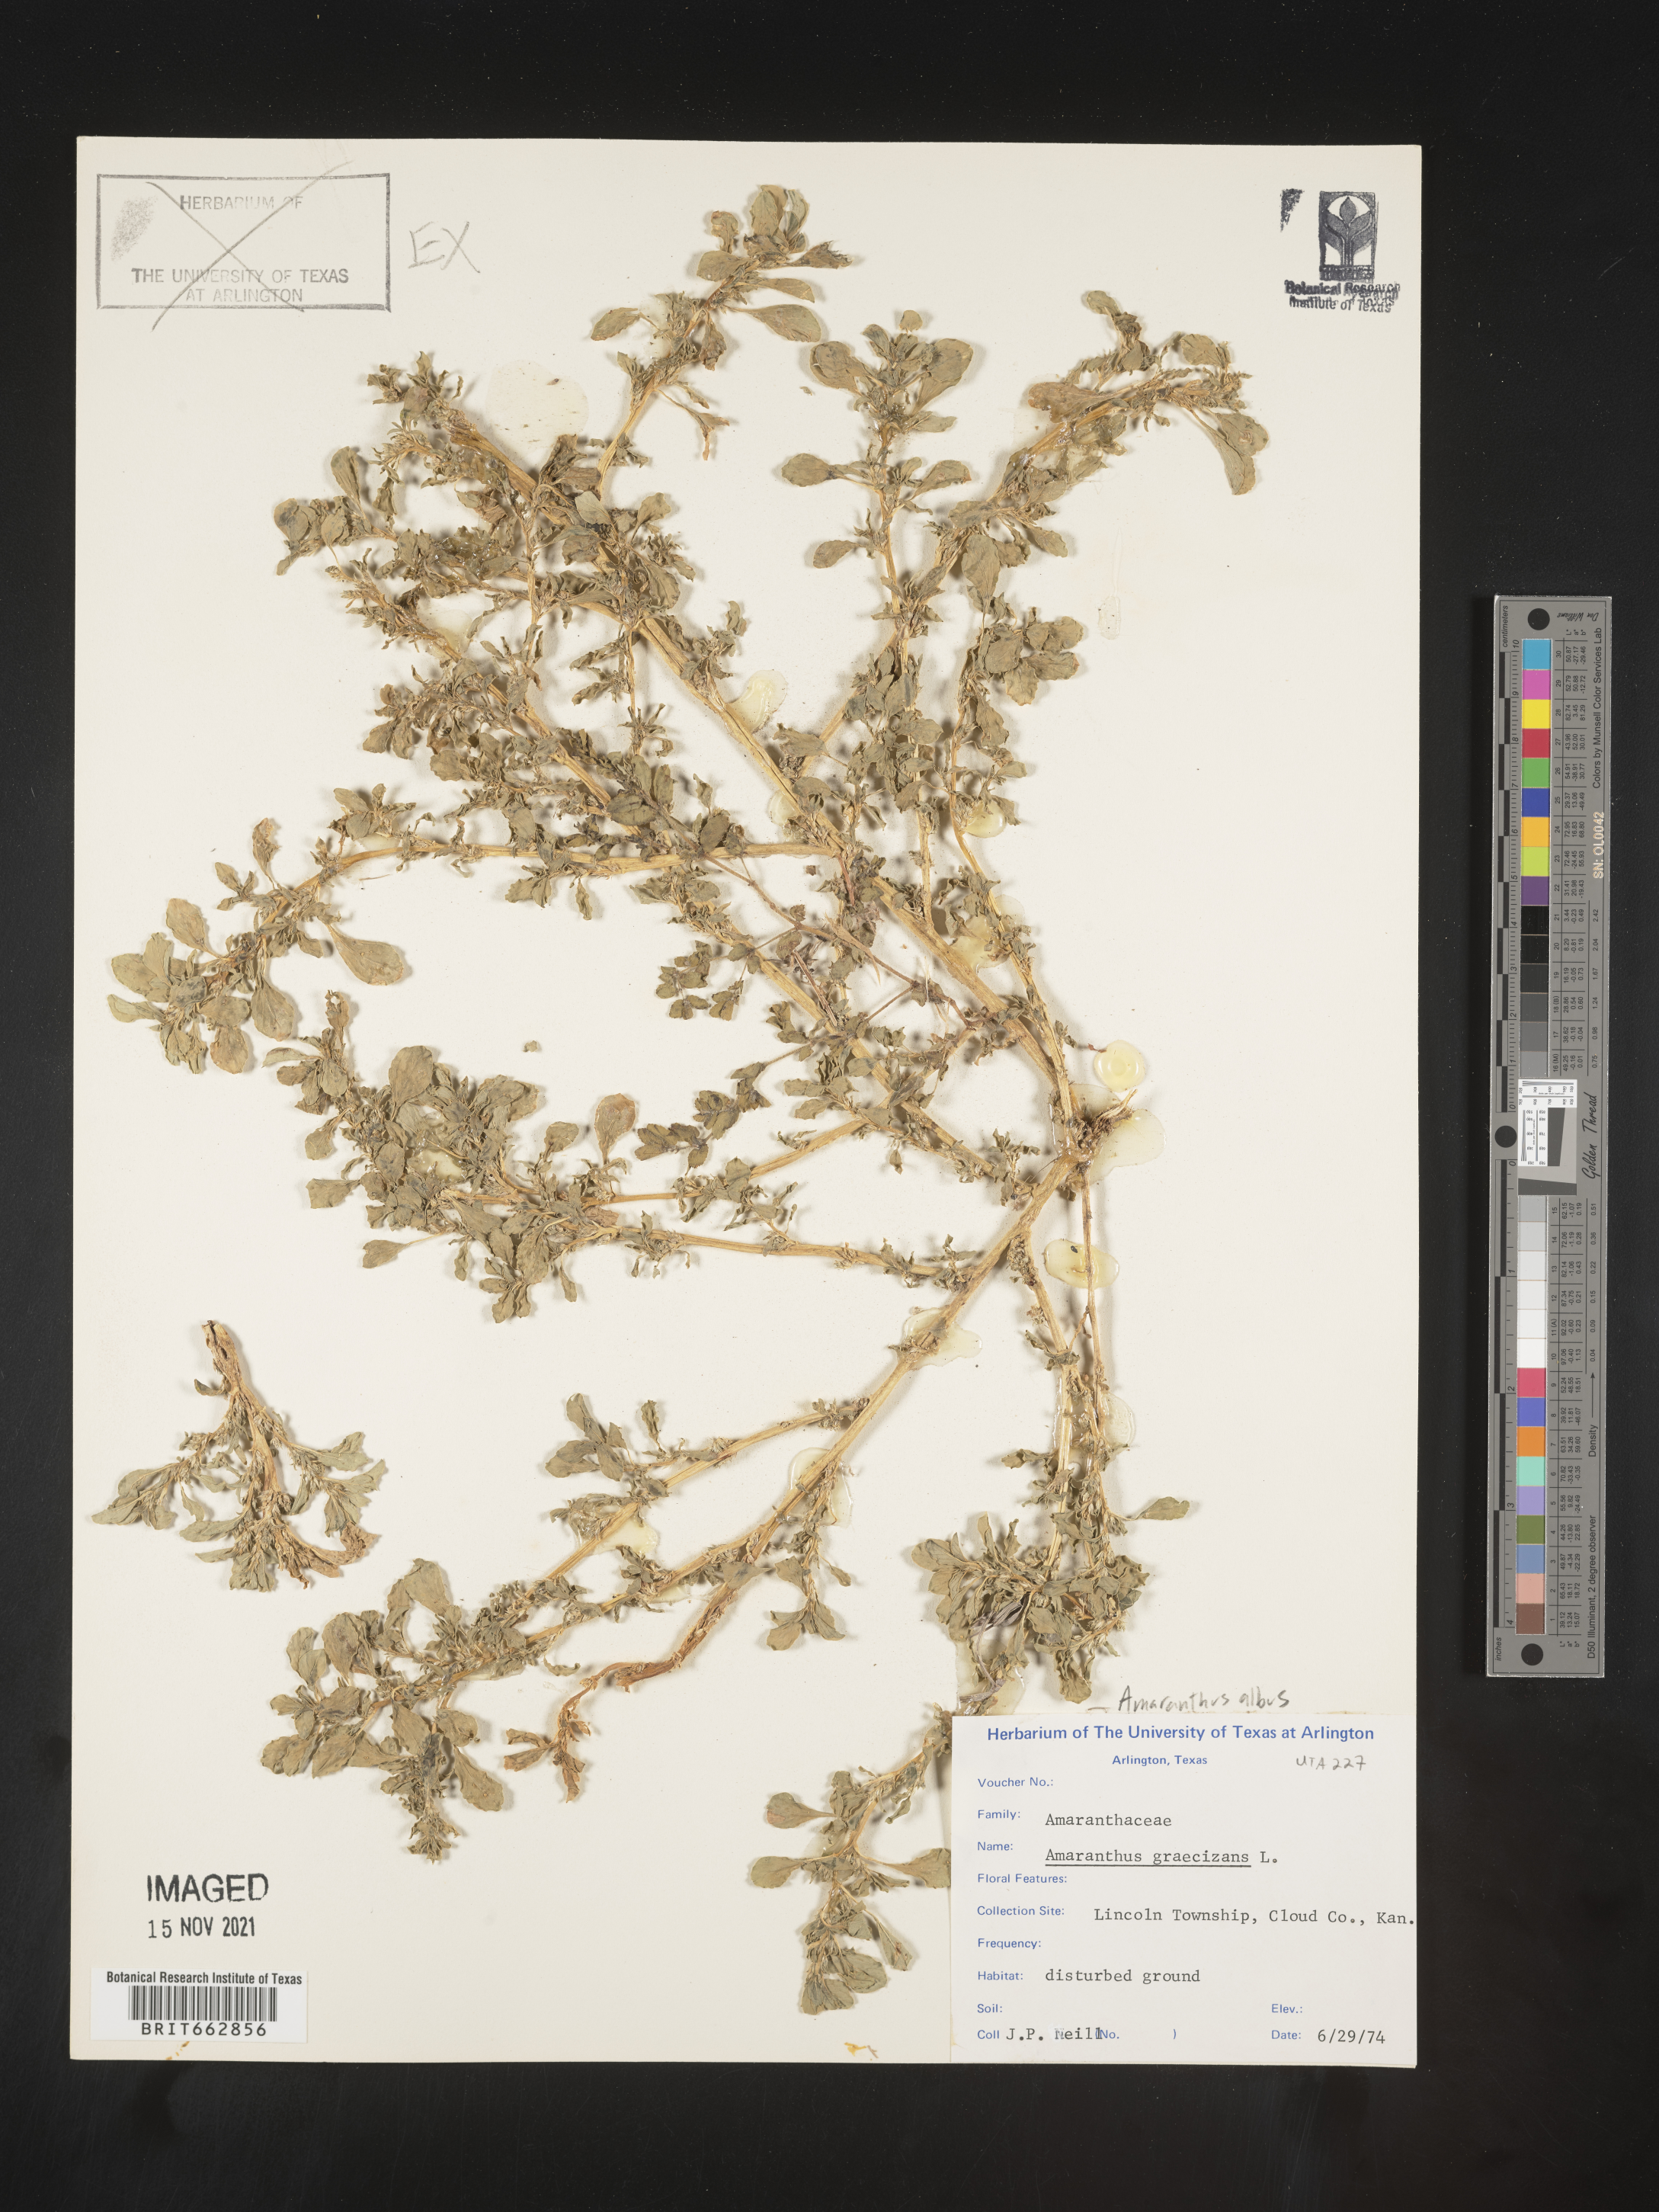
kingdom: Plantae
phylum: Tracheophyta
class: Magnoliopsida
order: Caryophyllales
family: Amaranthaceae
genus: Amaranthus
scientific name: Amaranthus albus
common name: White pigweed
